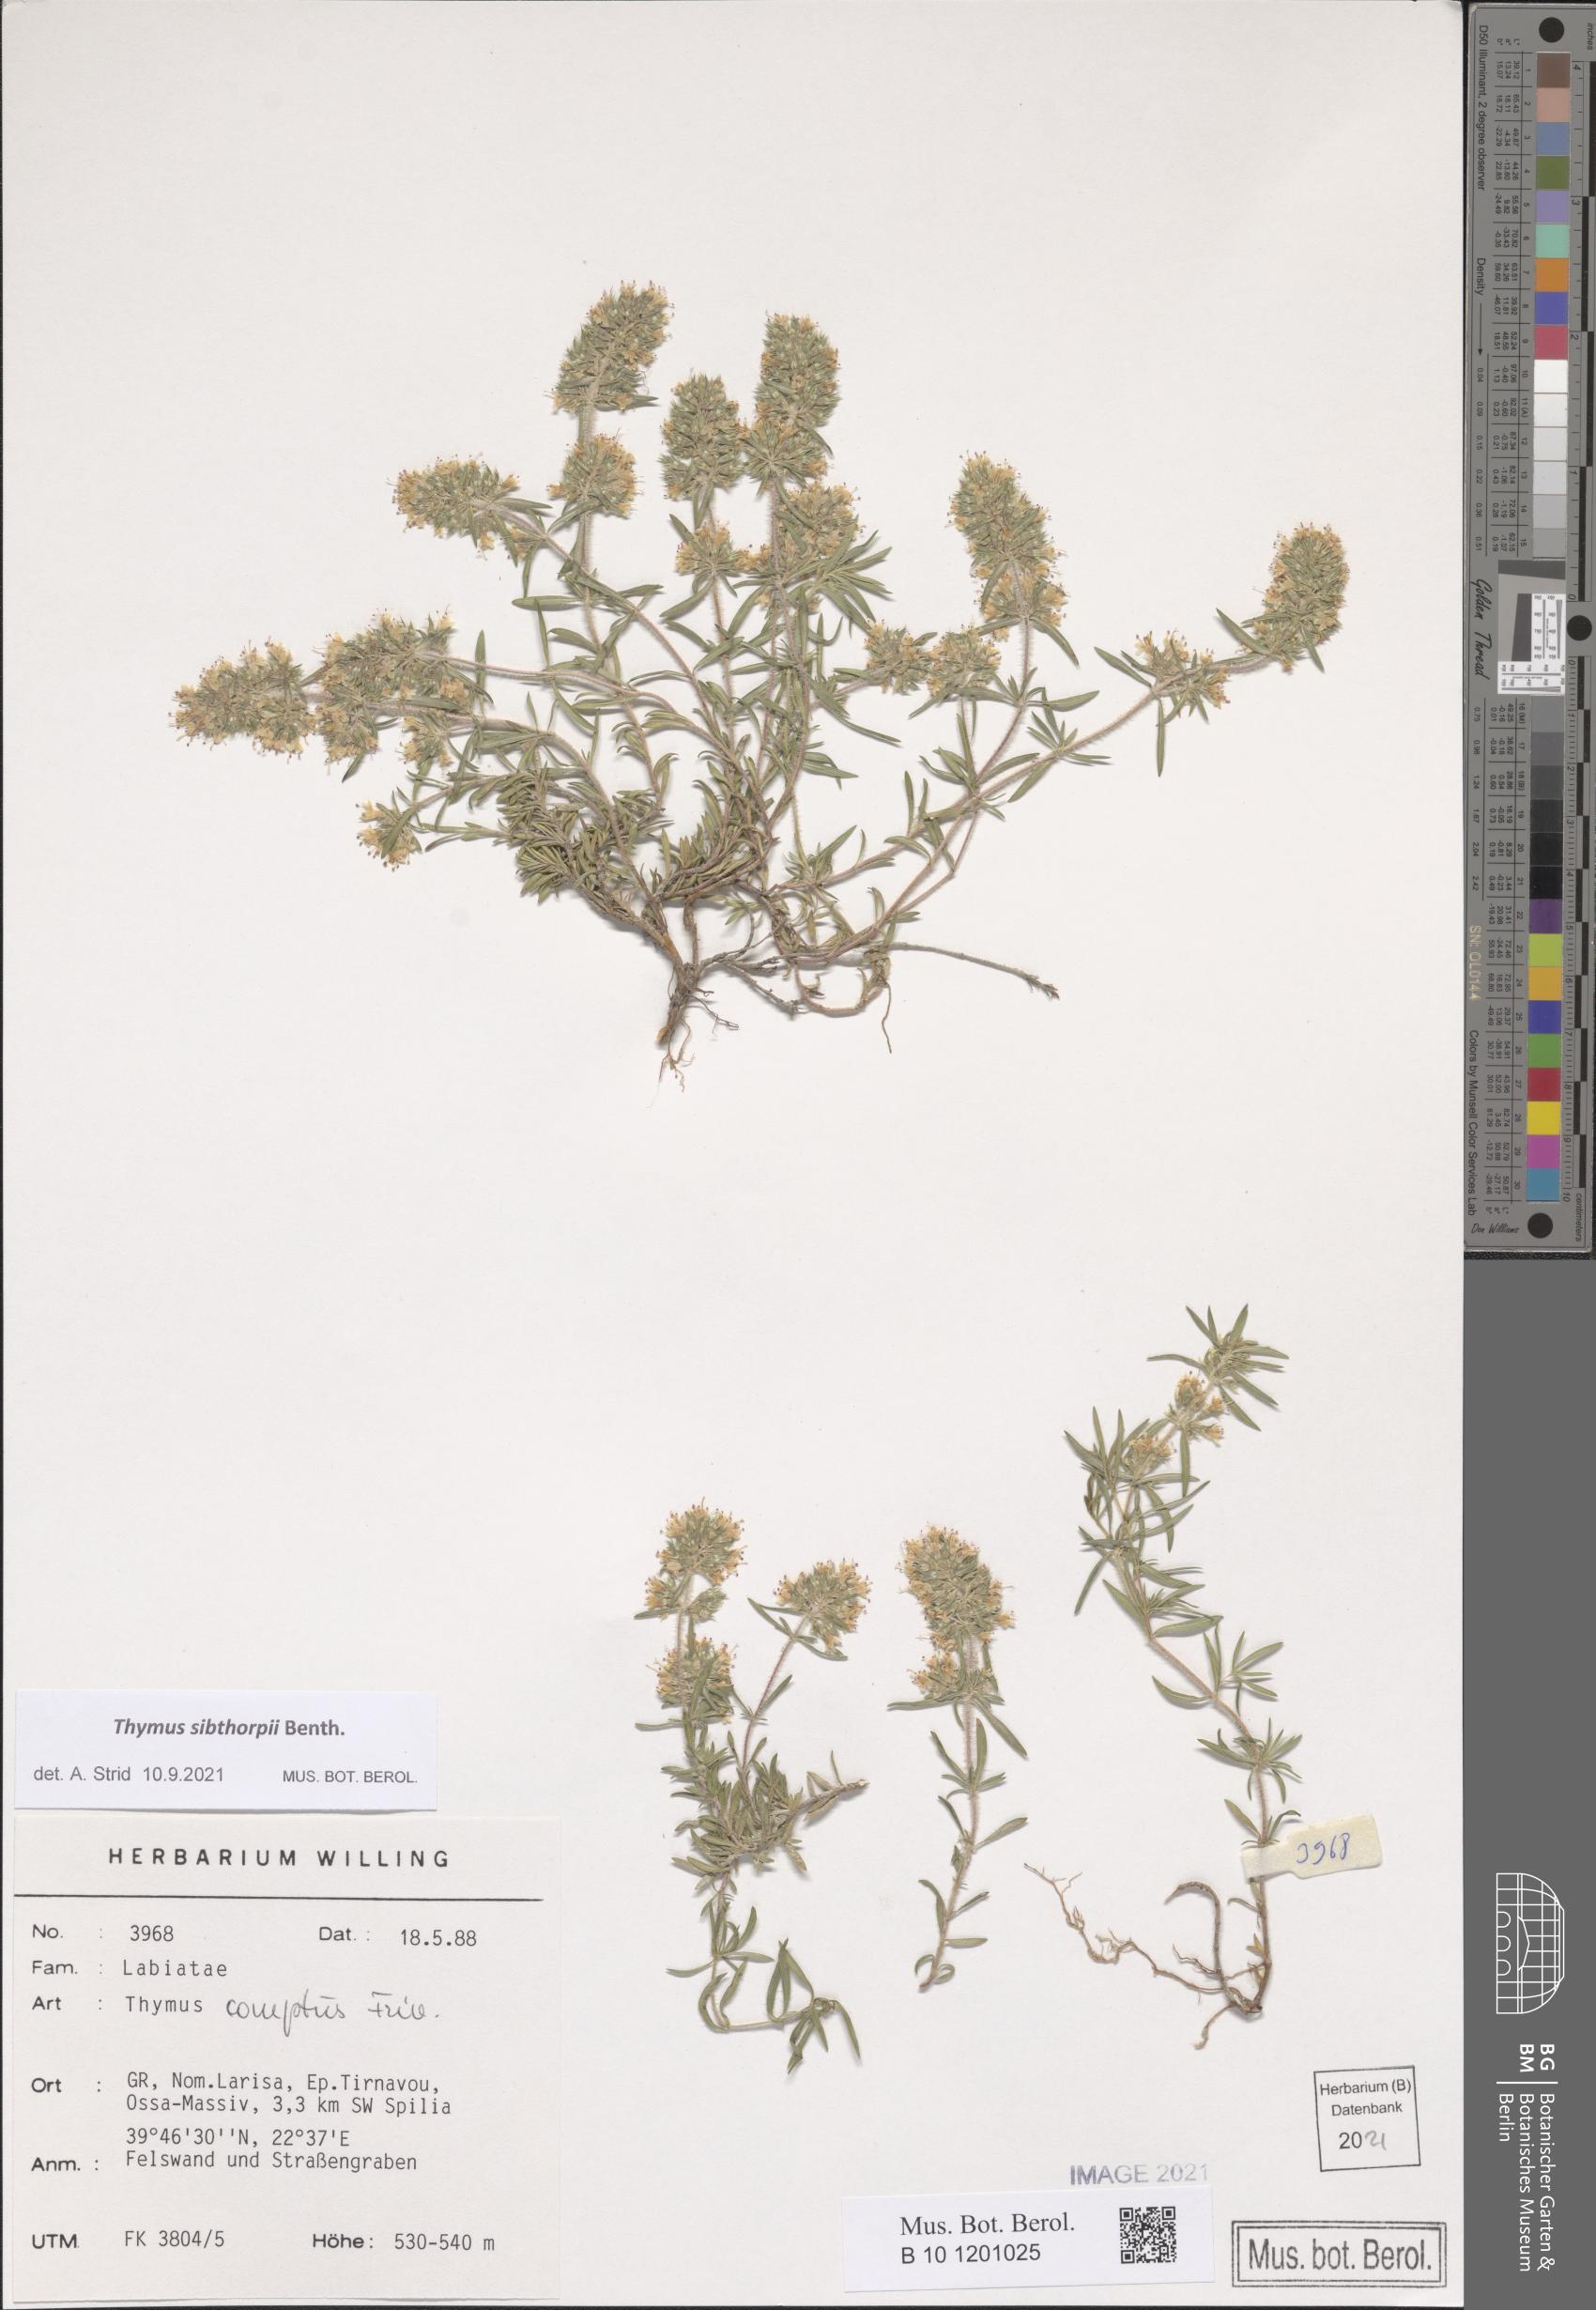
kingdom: Plantae
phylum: Tracheophyta
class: Magnoliopsida
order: Lamiales
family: Lamiaceae
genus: Thymus
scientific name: Thymus sibthorpii
